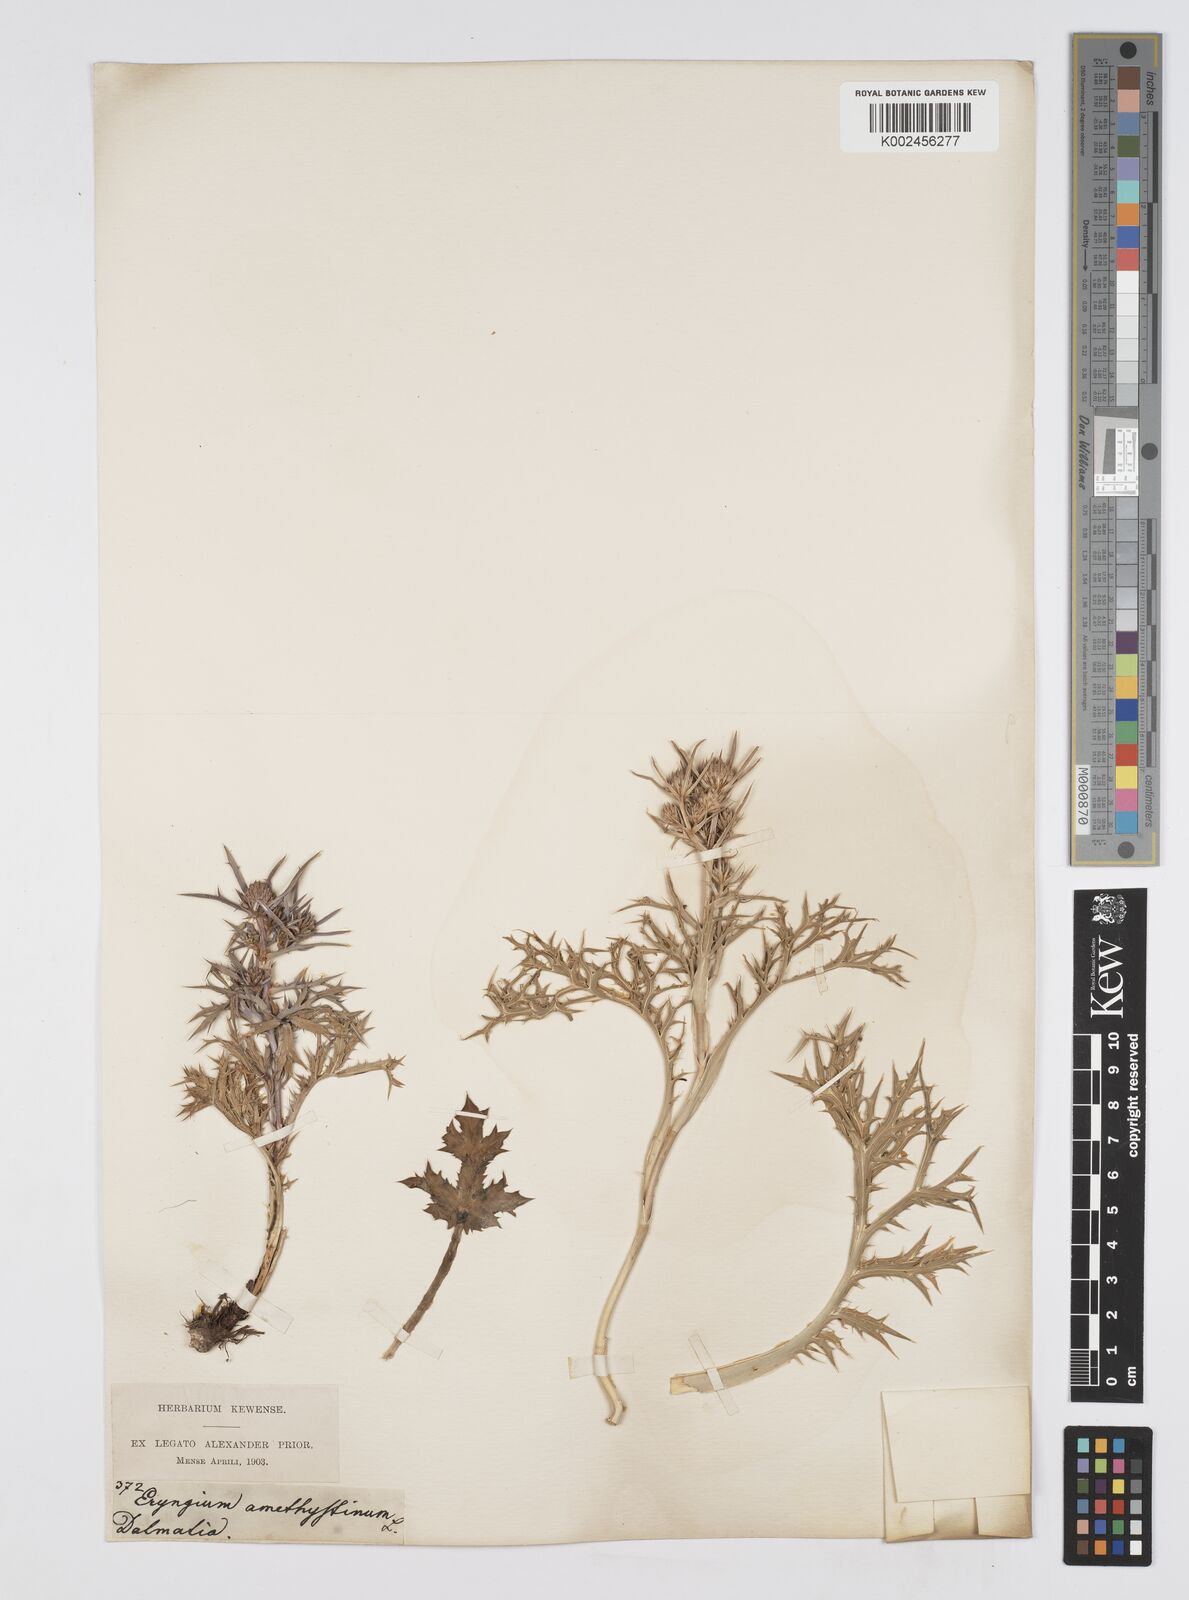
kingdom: Plantae
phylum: Tracheophyta
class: Magnoliopsida
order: Apiales
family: Apiaceae
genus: Eryngium
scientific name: Eryngium amethystinum
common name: Amethyst eryngo
